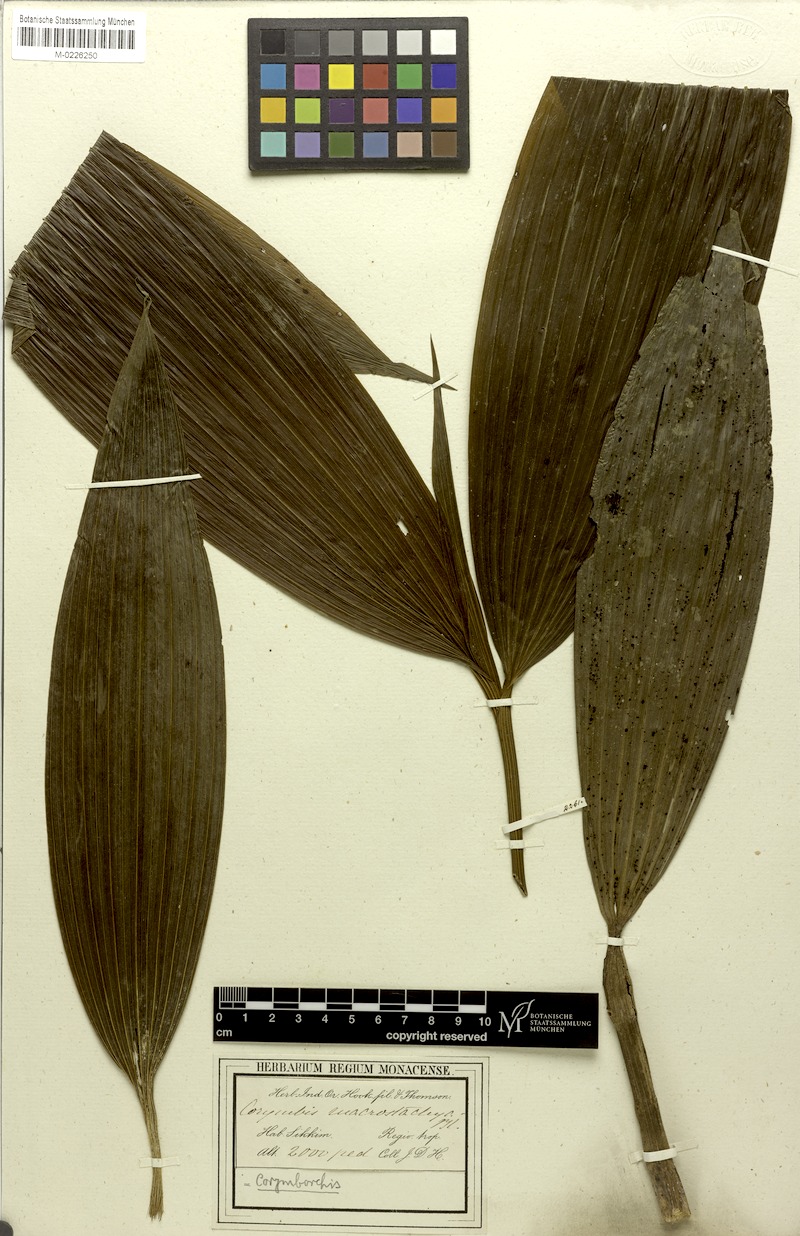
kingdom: Plantae
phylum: Tracheophyta
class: Liliopsida
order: Asparagales
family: Orchidaceae
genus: Corymborkis
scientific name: Corymborkis
